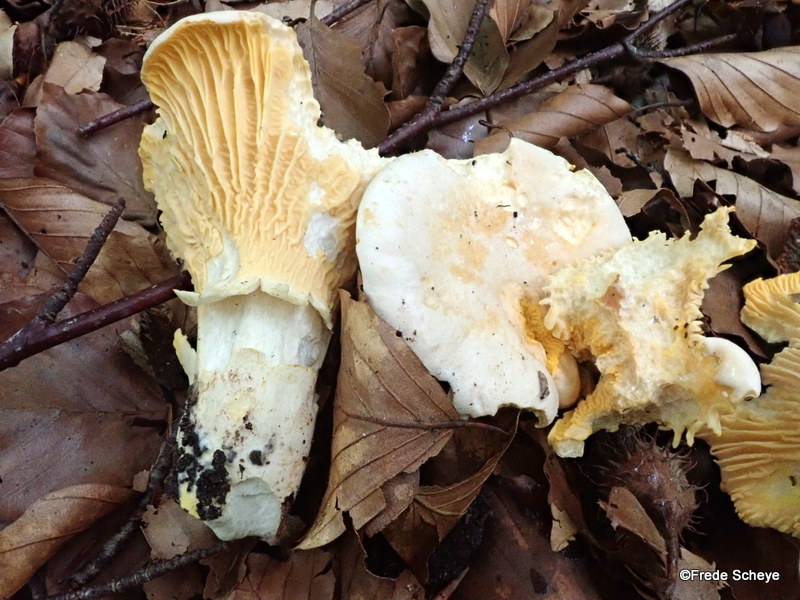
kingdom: Fungi
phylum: Basidiomycota
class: Agaricomycetes
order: Cantharellales
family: Hydnaceae
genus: Cantharellus
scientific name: Cantharellus pallens
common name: bleg kantarel
